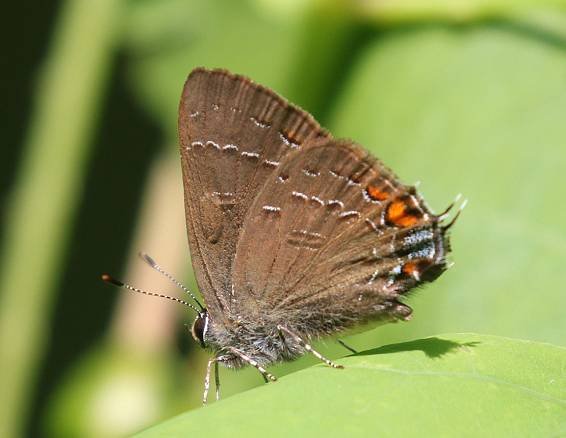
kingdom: Animalia
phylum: Arthropoda
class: Insecta
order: Lepidoptera
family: Lycaenidae
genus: Satyrium
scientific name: Satyrium calanus
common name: Banded Hairstreak
